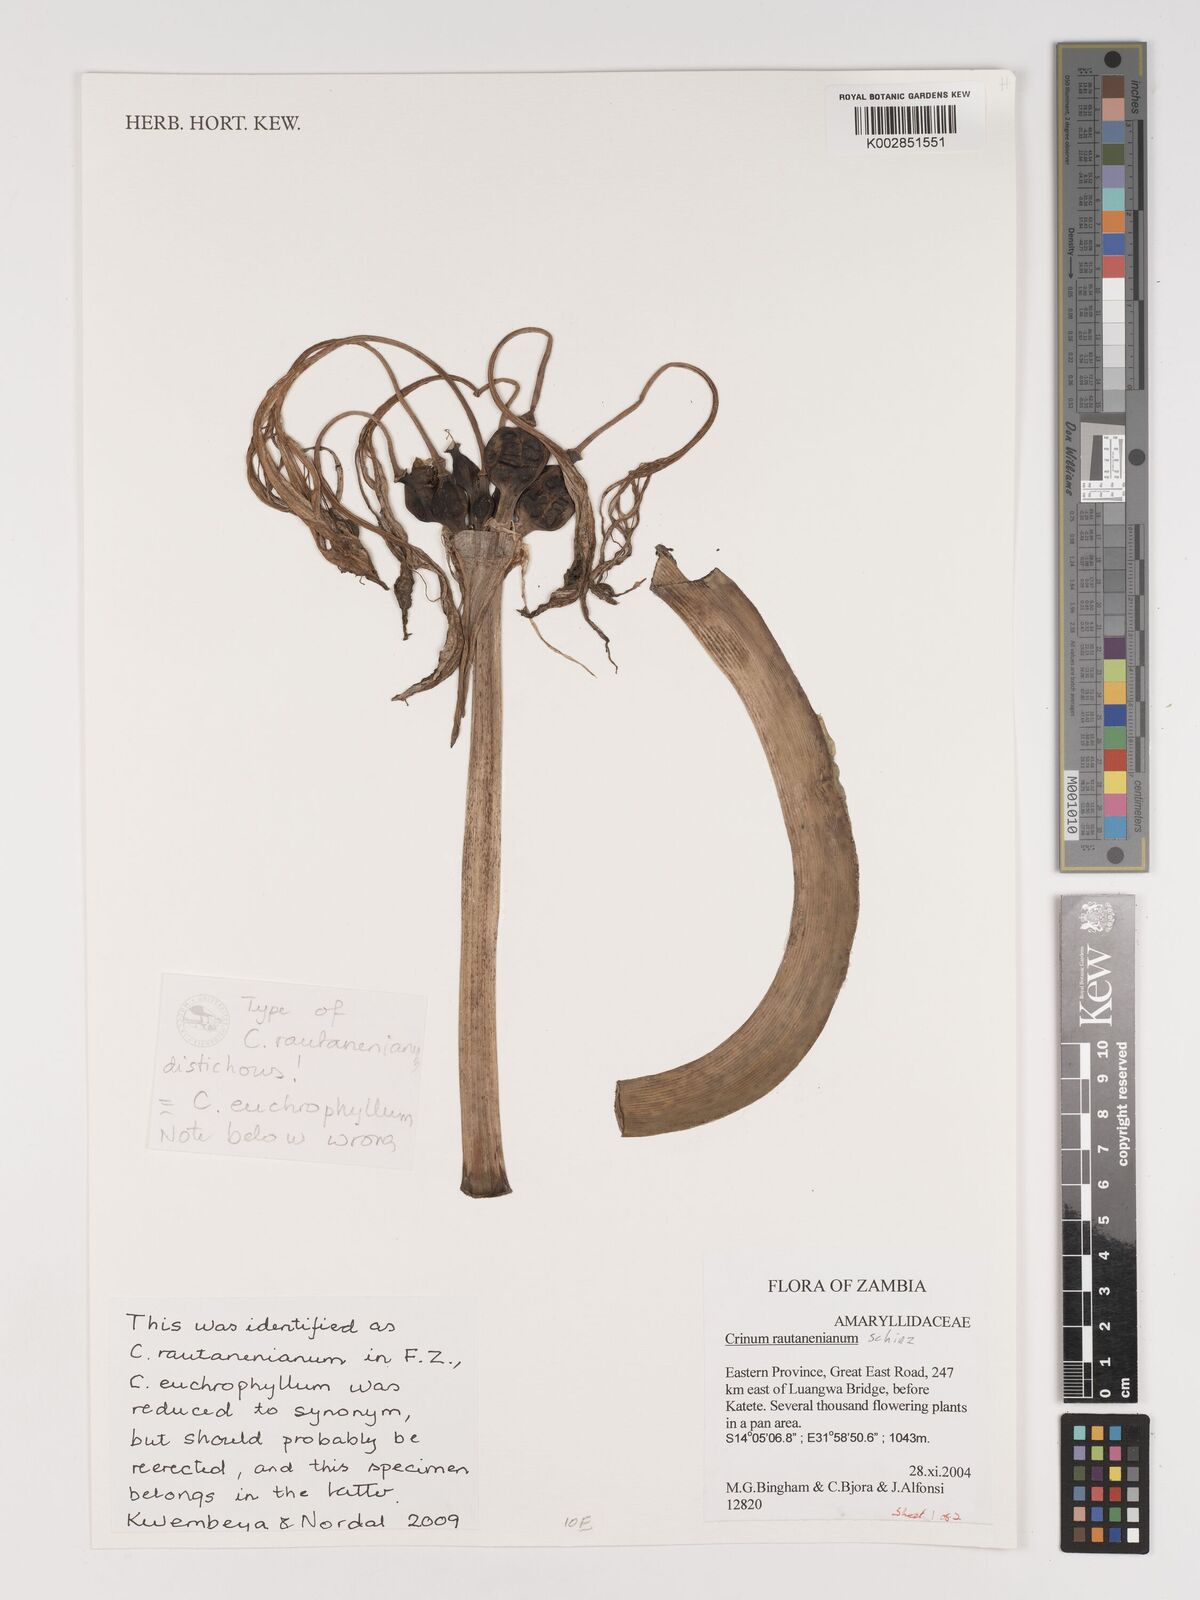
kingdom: Plantae
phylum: Tracheophyta
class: Liliopsida
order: Asparagales
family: Amaryllidaceae
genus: Crinum
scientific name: Crinum rautanenianum
